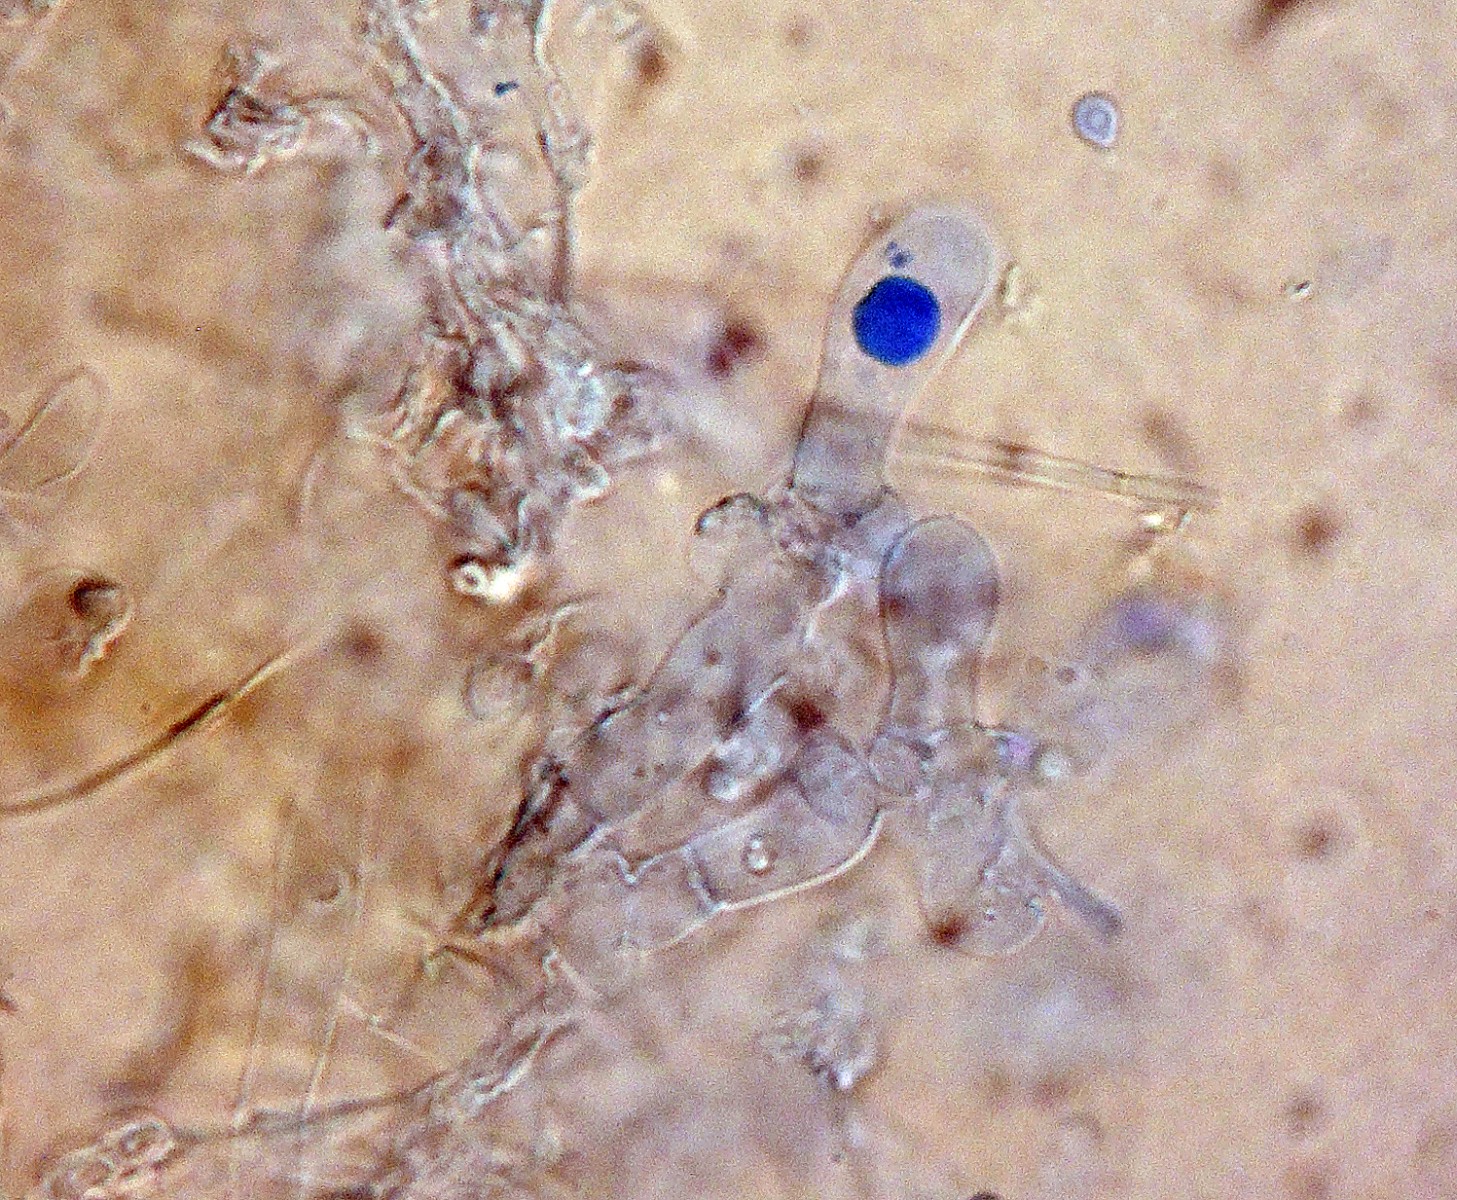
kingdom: Fungi
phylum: Basidiomycota
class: Agaricomycetes
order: Agaricales
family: Stephanosporaceae
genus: Cristinia
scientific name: Cristinia coprophila
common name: gødnings-citrushinde
